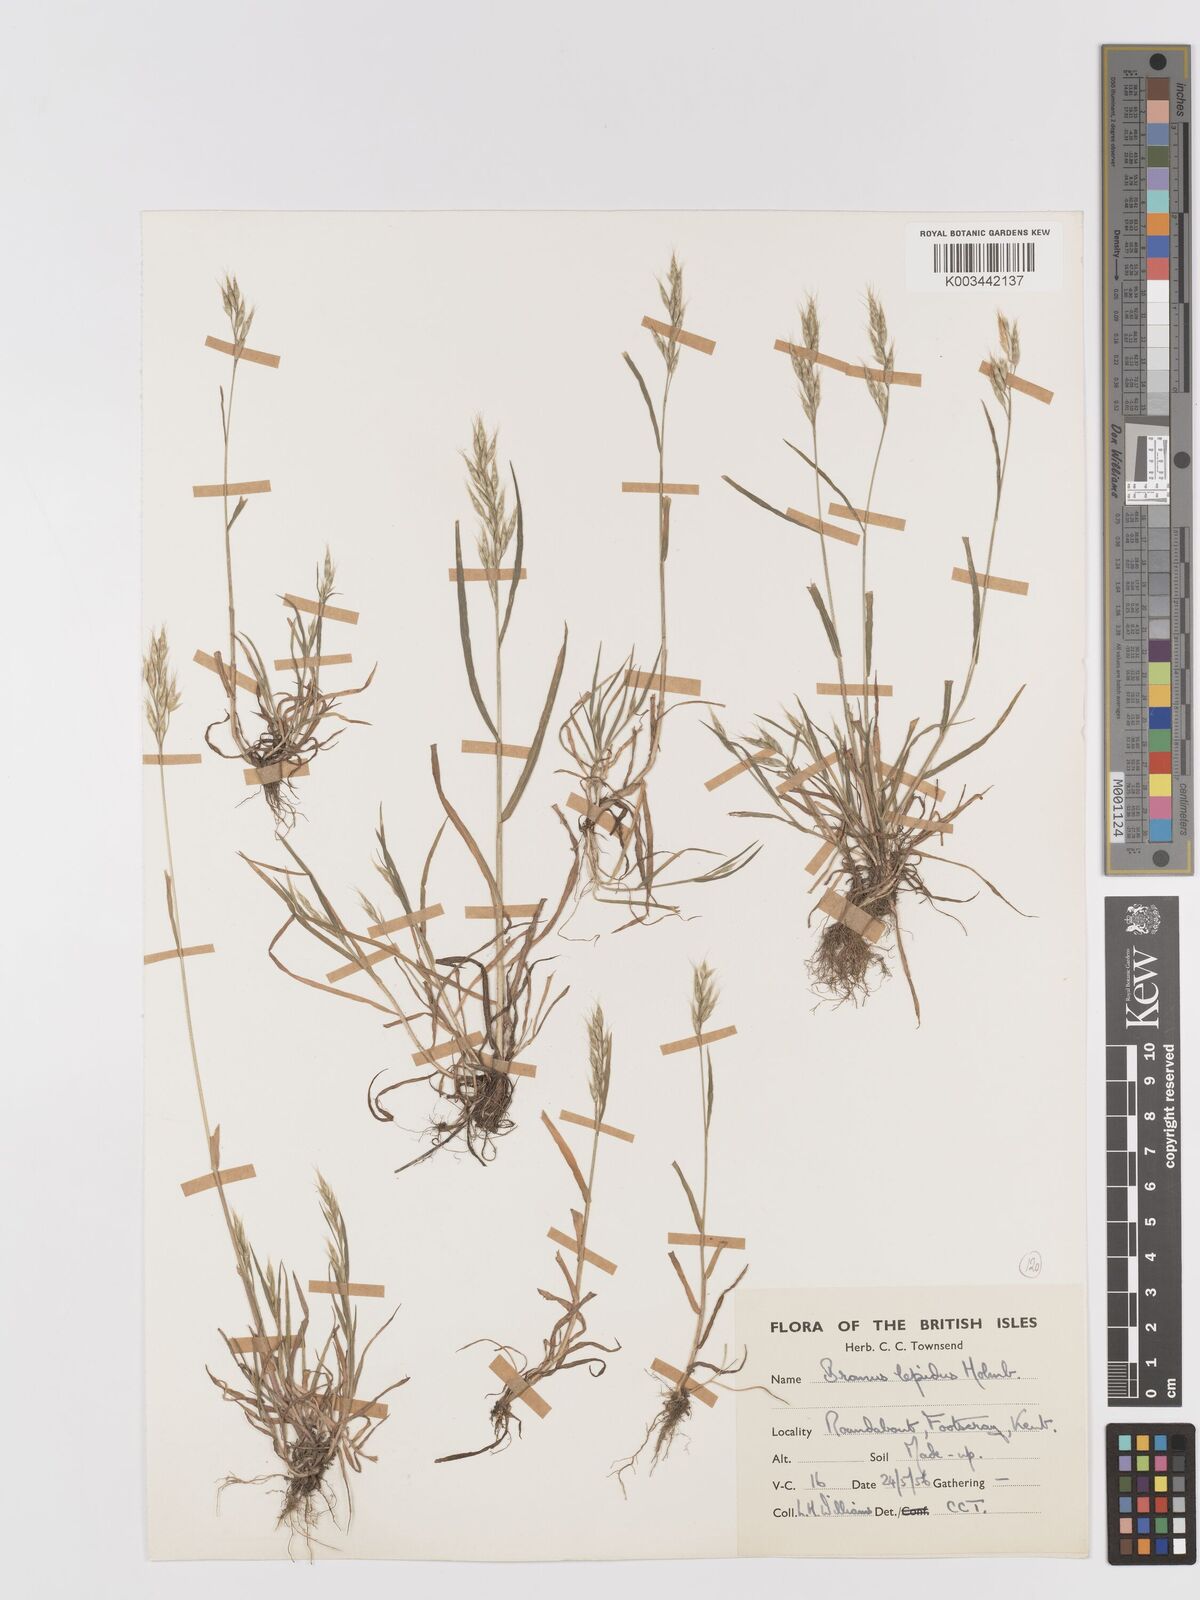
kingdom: Plantae
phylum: Tracheophyta
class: Liliopsida
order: Poales
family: Poaceae
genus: Bromus
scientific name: Bromus lepidus
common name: Slender soft-brome
